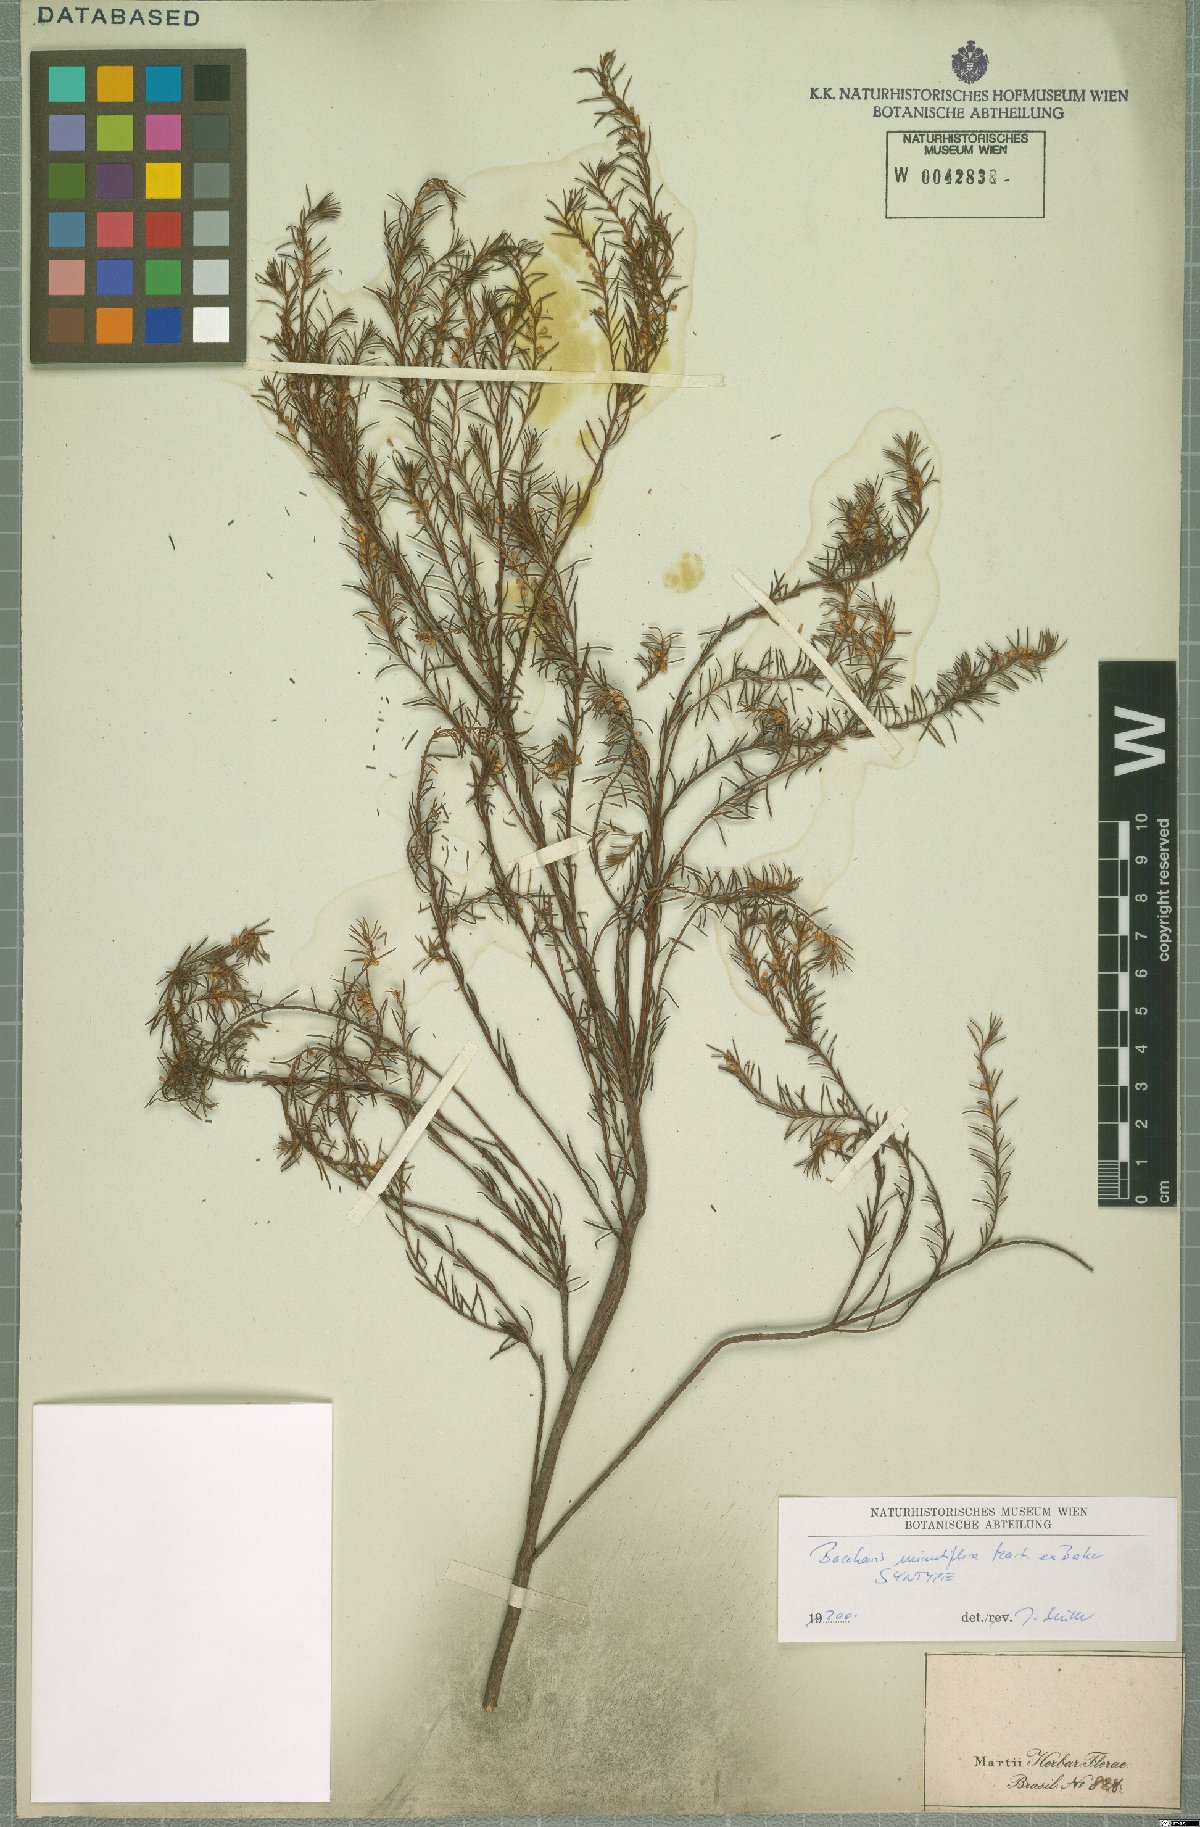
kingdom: Plantae
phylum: Tracheophyta
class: Magnoliopsida
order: Asterales
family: Asteraceae
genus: Baccharis
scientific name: Baccharis minutiflora
